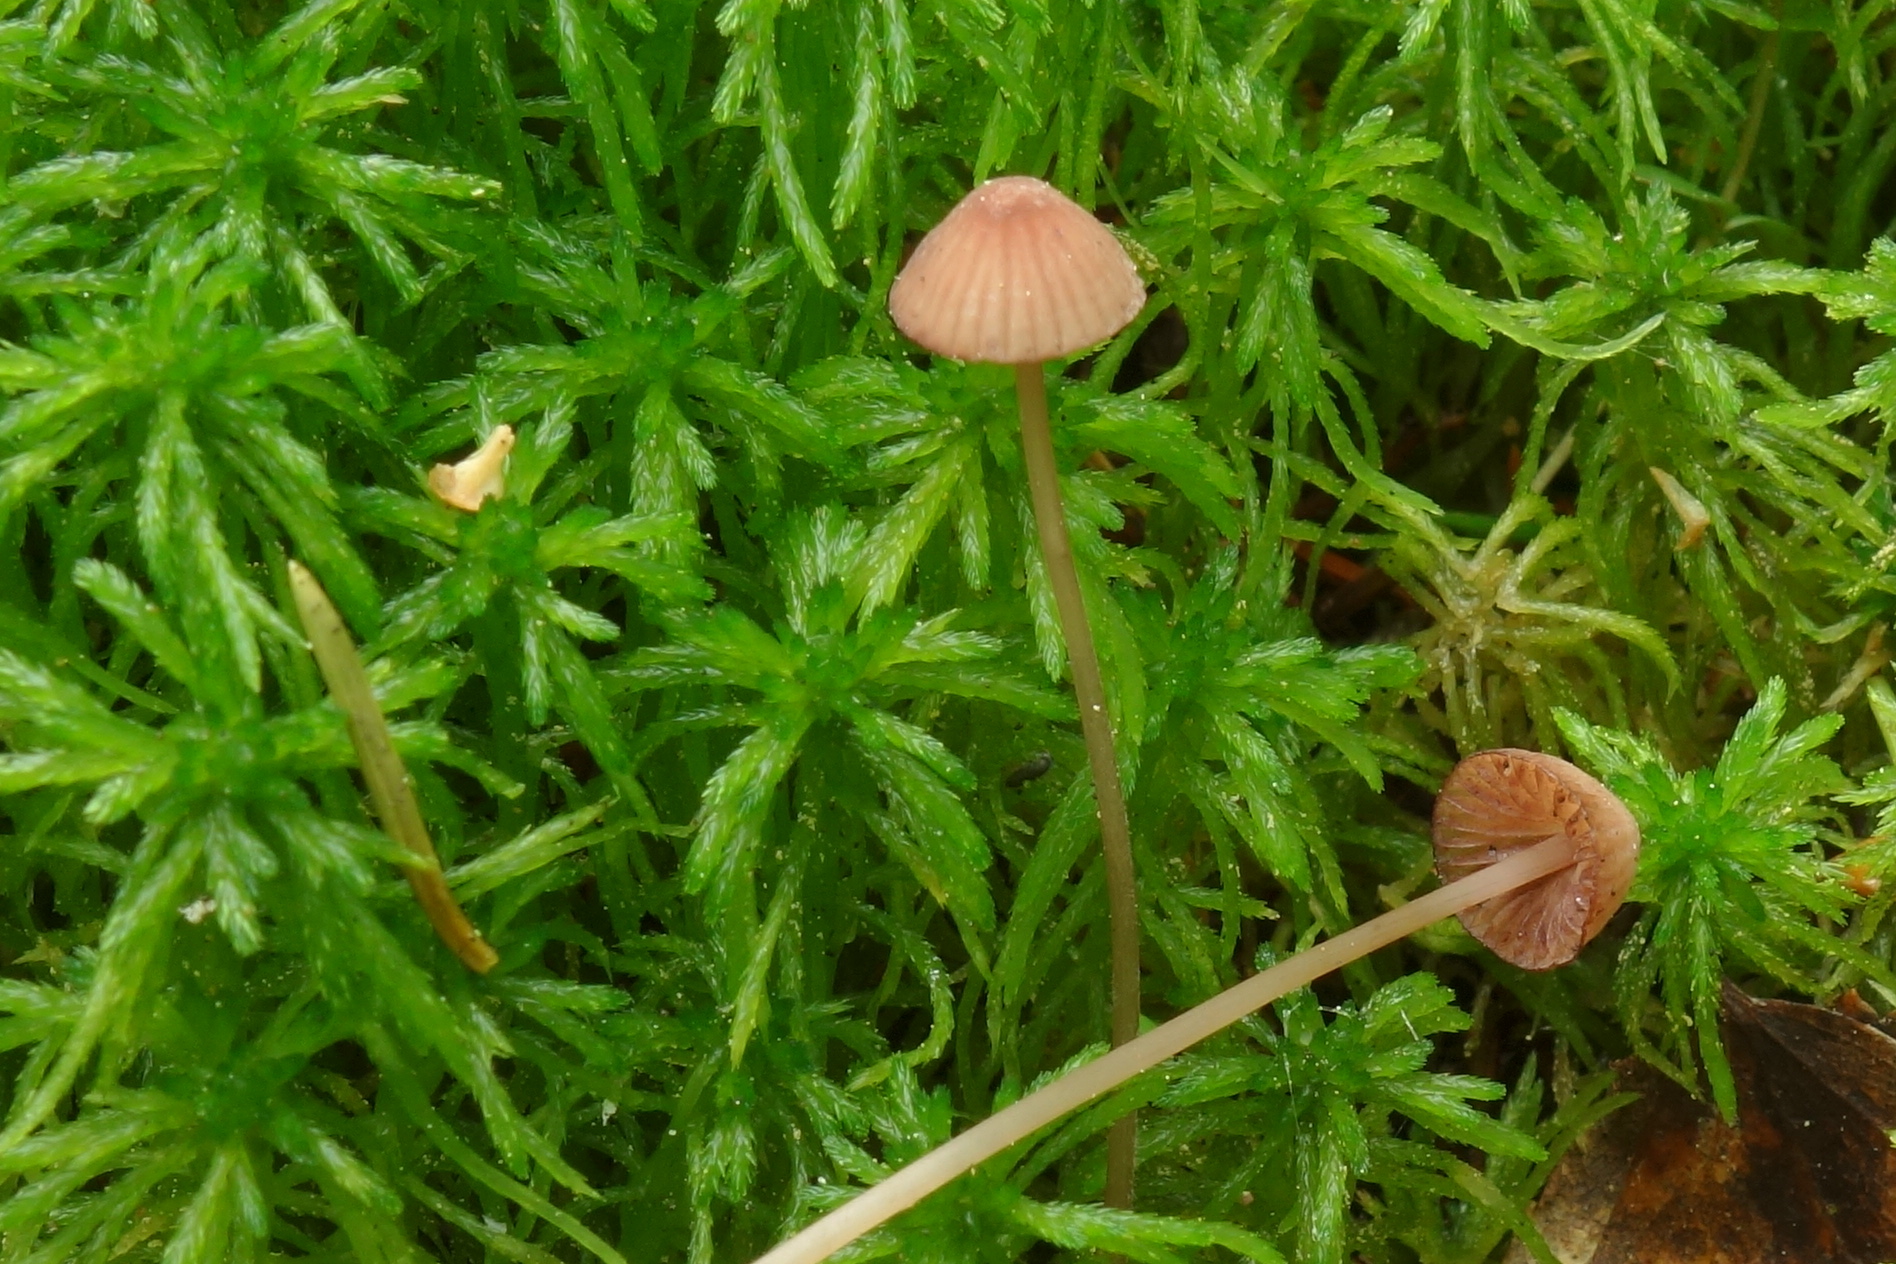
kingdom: Fungi
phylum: Basidiomycota
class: Agaricomycetes
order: Agaricales
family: Mycenaceae
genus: Mycena
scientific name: Mycena sanguinolenta
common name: Bleeding bonnet
